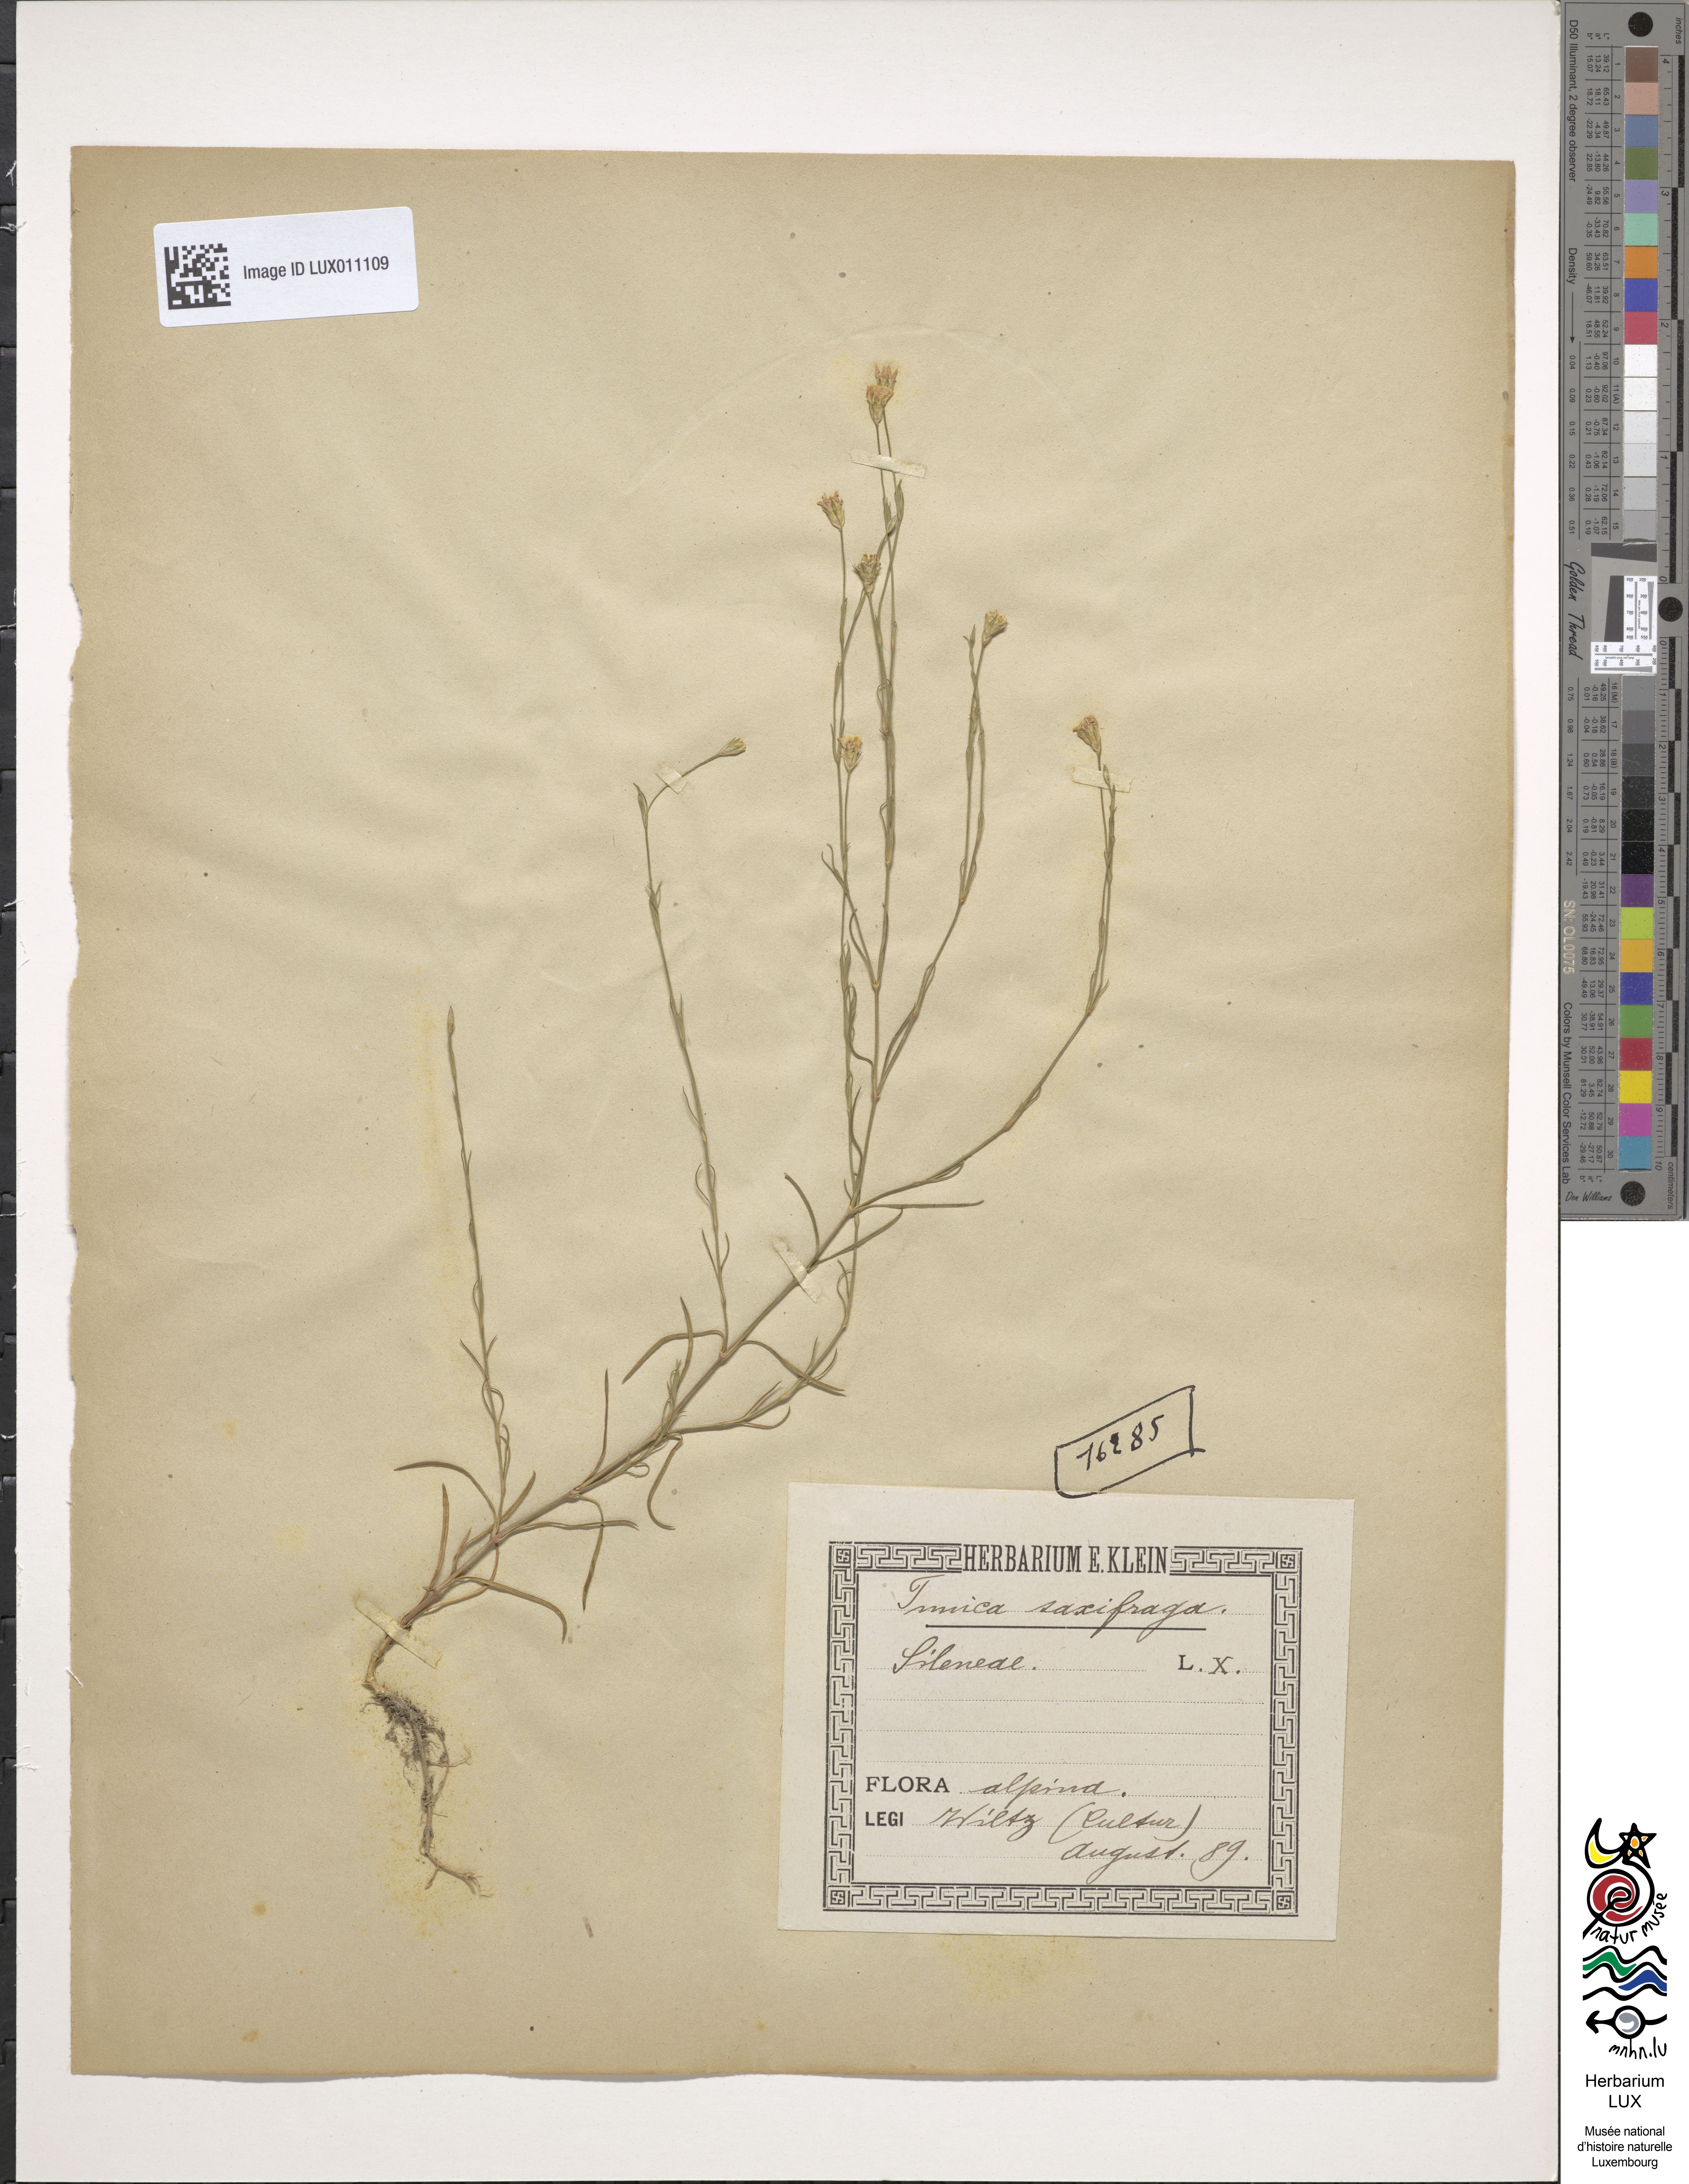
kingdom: Plantae
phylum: Tracheophyta
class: Magnoliopsida
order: Caryophyllales
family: Caryophyllaceae
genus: Petrorhagia
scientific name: Petrorhagia saxifraga
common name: Tunicflower
